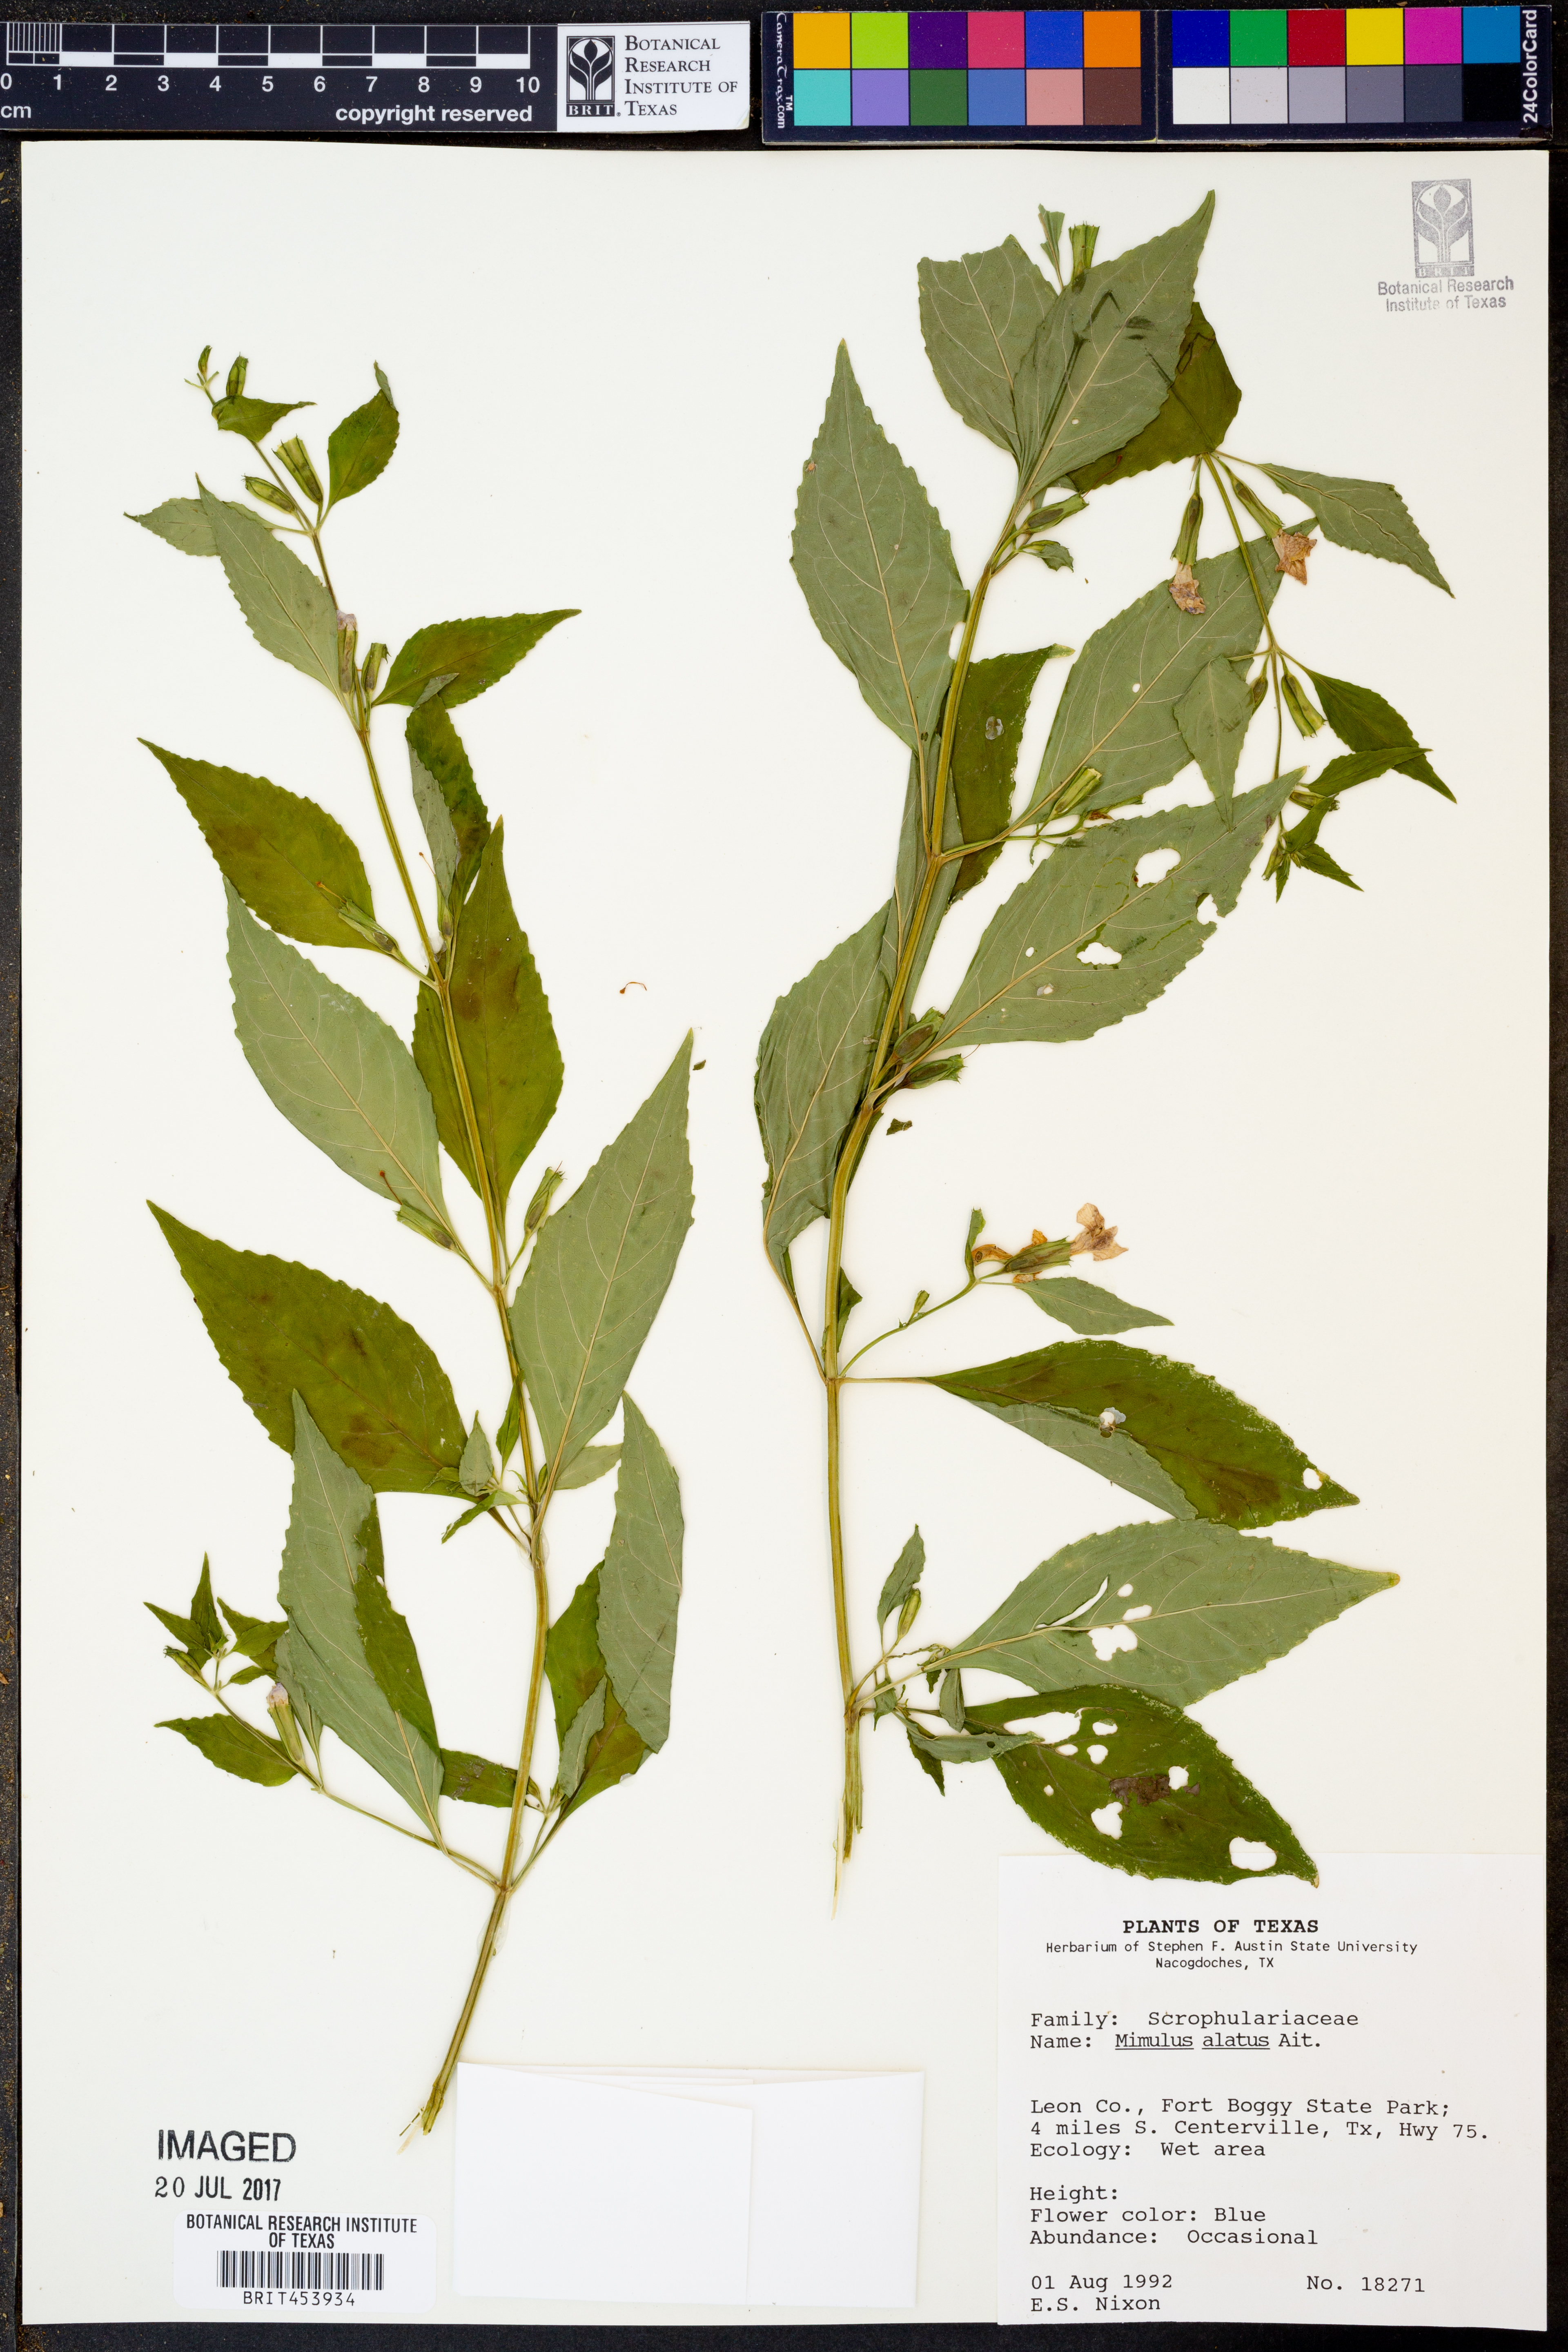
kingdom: Plantae
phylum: Tracheophyta
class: Magnoliopsida
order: Lamiales
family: Phrymaceae
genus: Mimulus
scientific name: Mimulus alatus
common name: Sharp-wing monkey-flower
